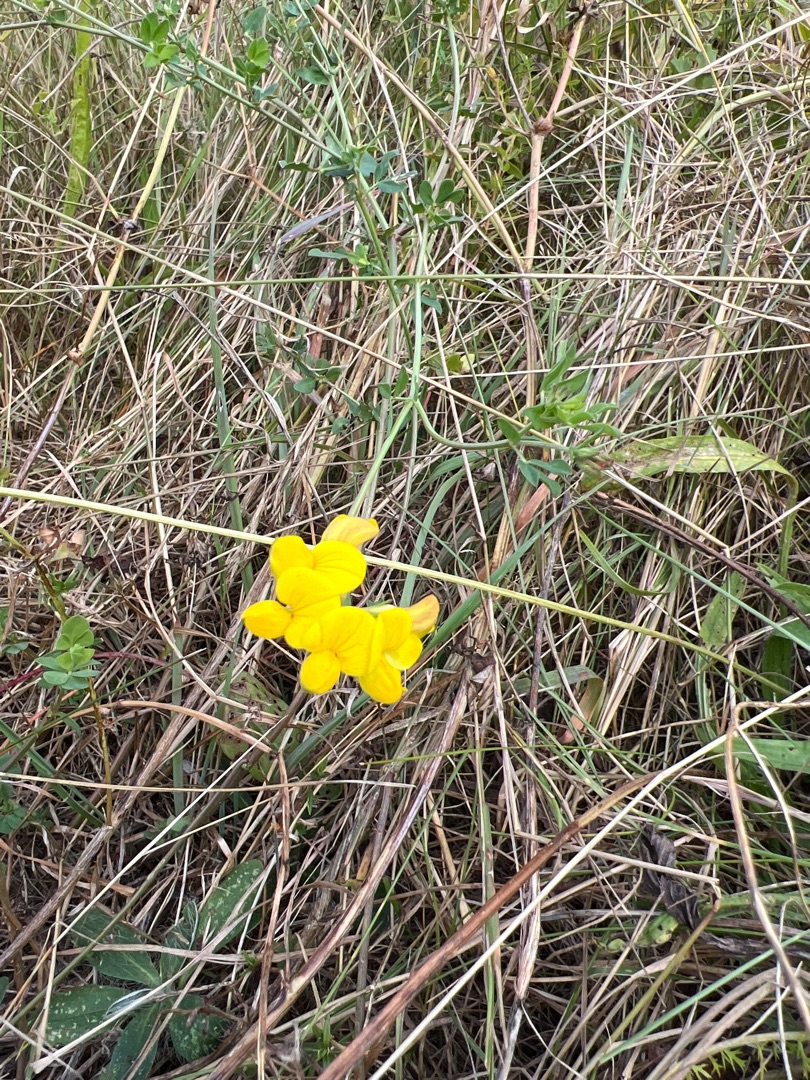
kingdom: Plantae
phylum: Tracheophyta
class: Magnoliopsida
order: Fabales
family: Fabaceae
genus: Lotus
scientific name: Lotus corniculatus
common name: Almindelig kællingetand
